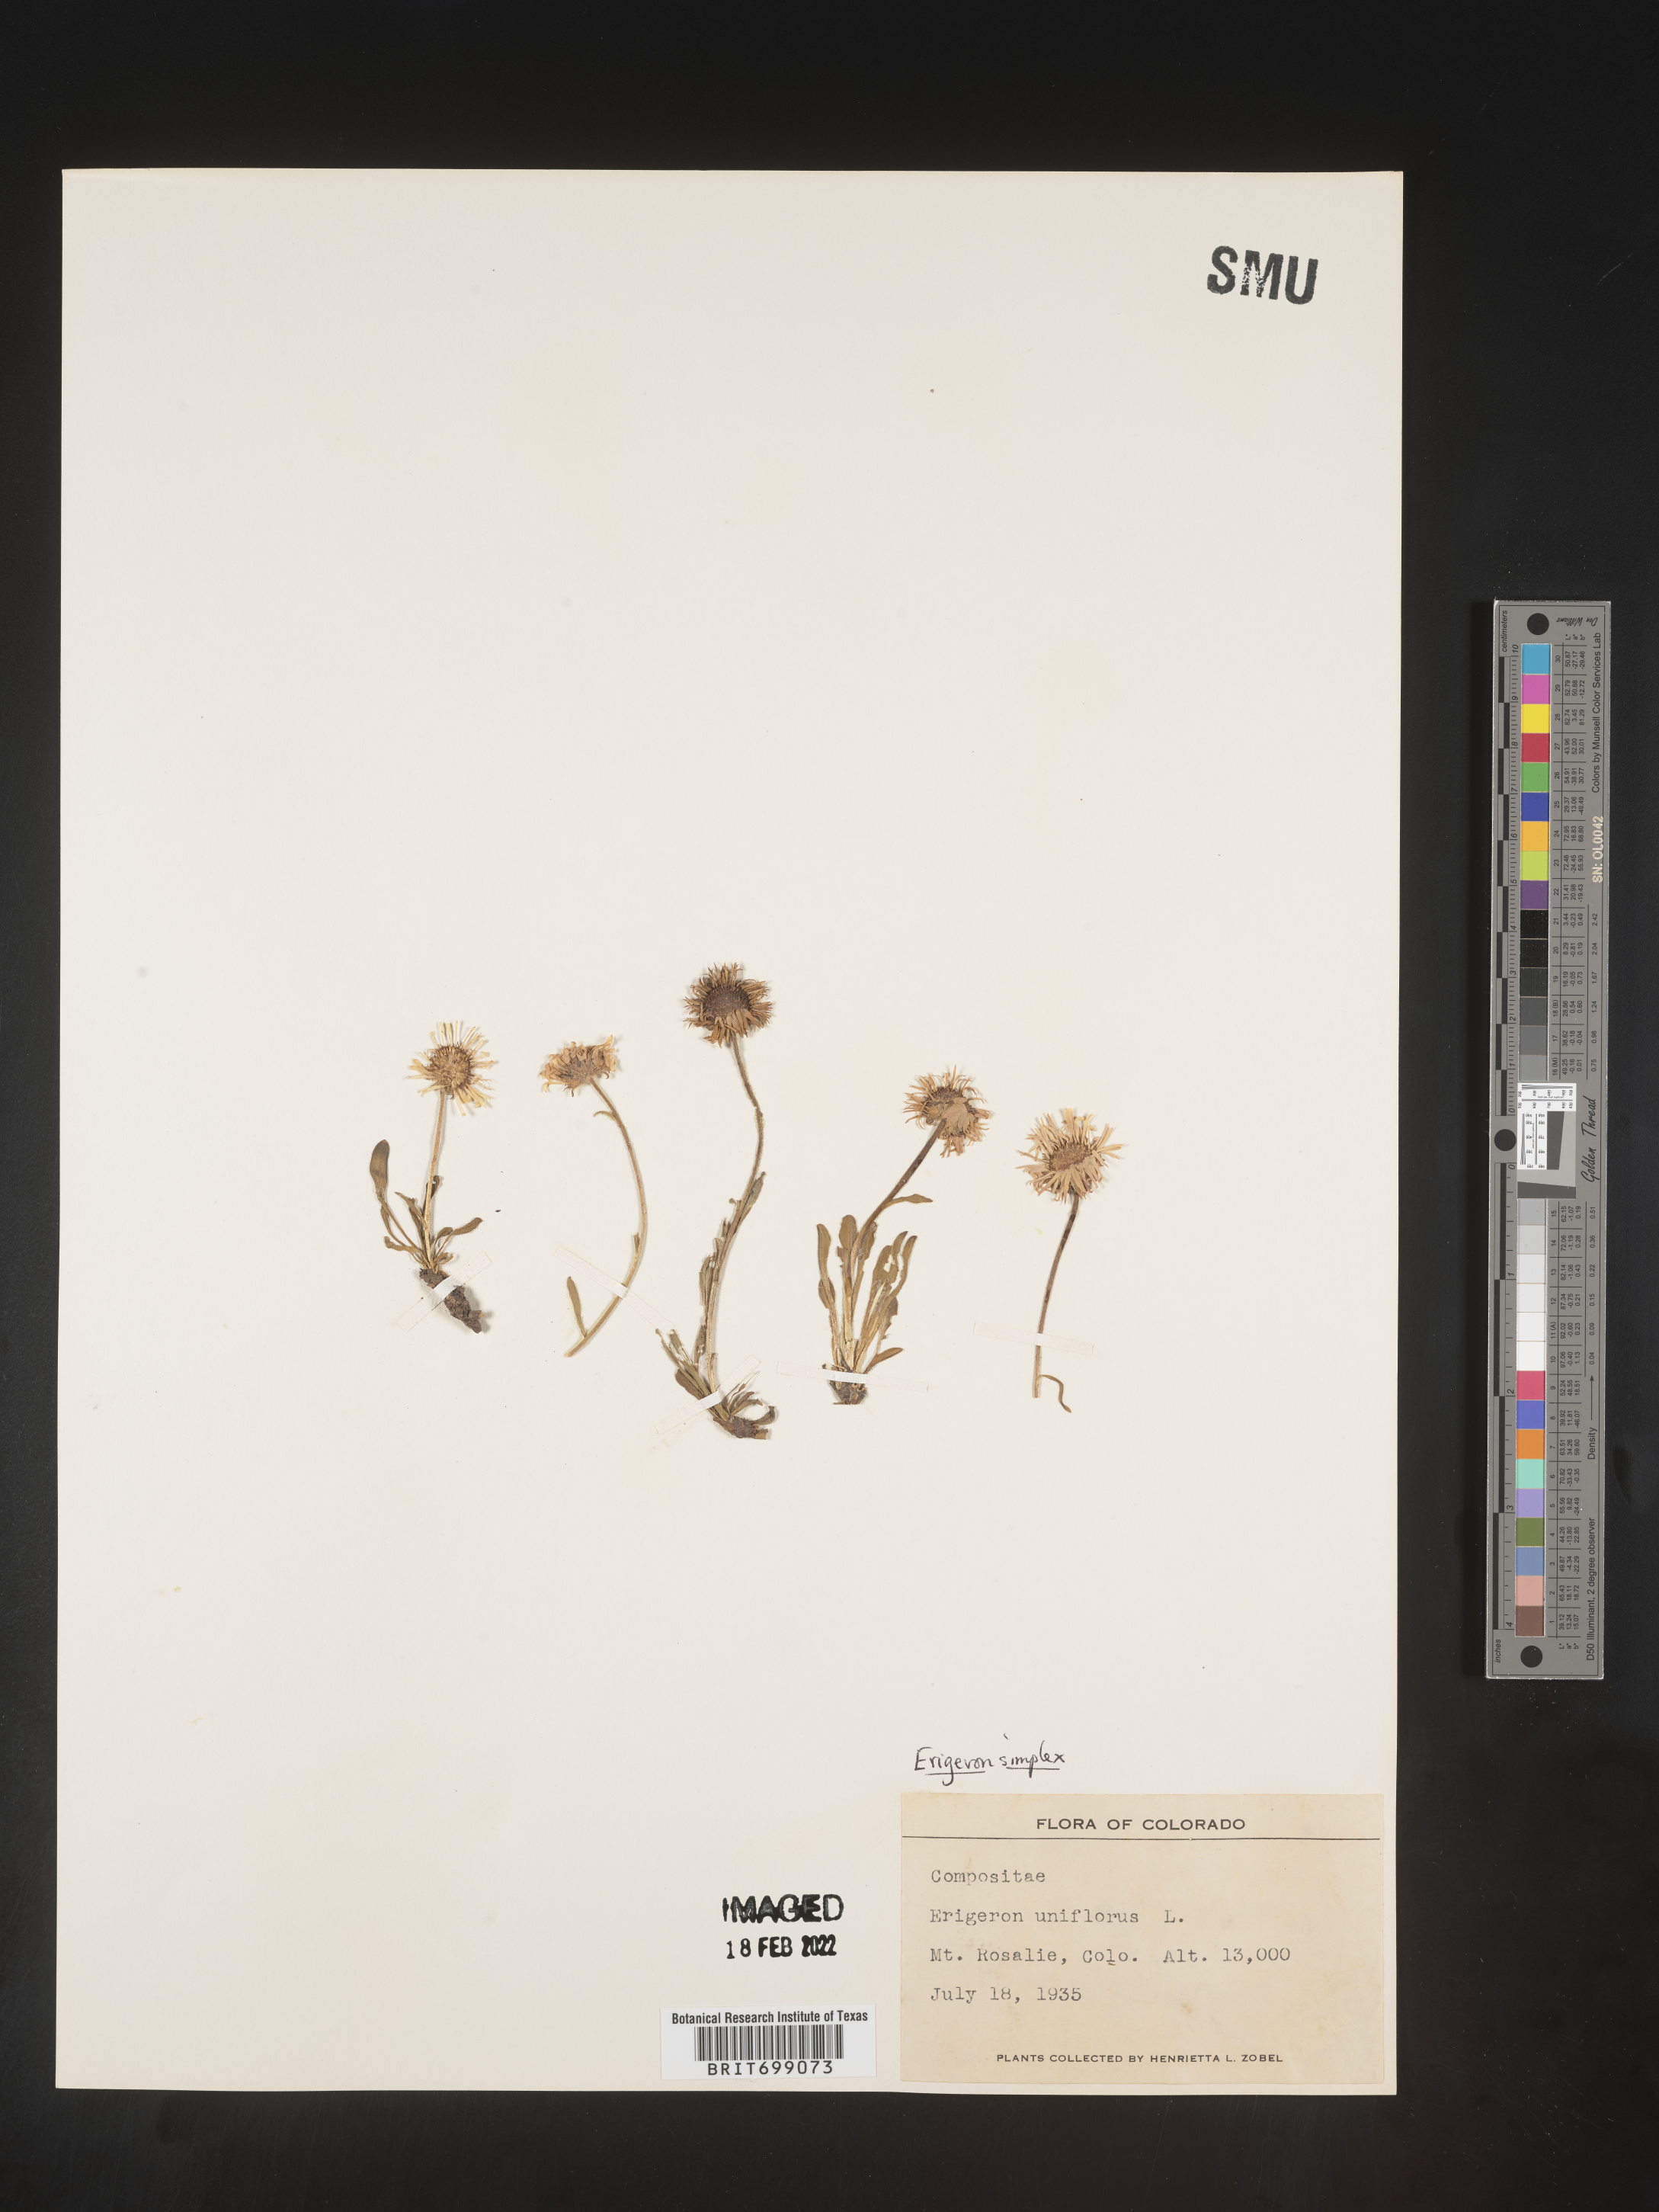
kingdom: Plantae
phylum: Tracheophyta
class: Magnoliopsida
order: Asterales
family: Asteraceae
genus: Erigeron
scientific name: Erigeron caucasicus
